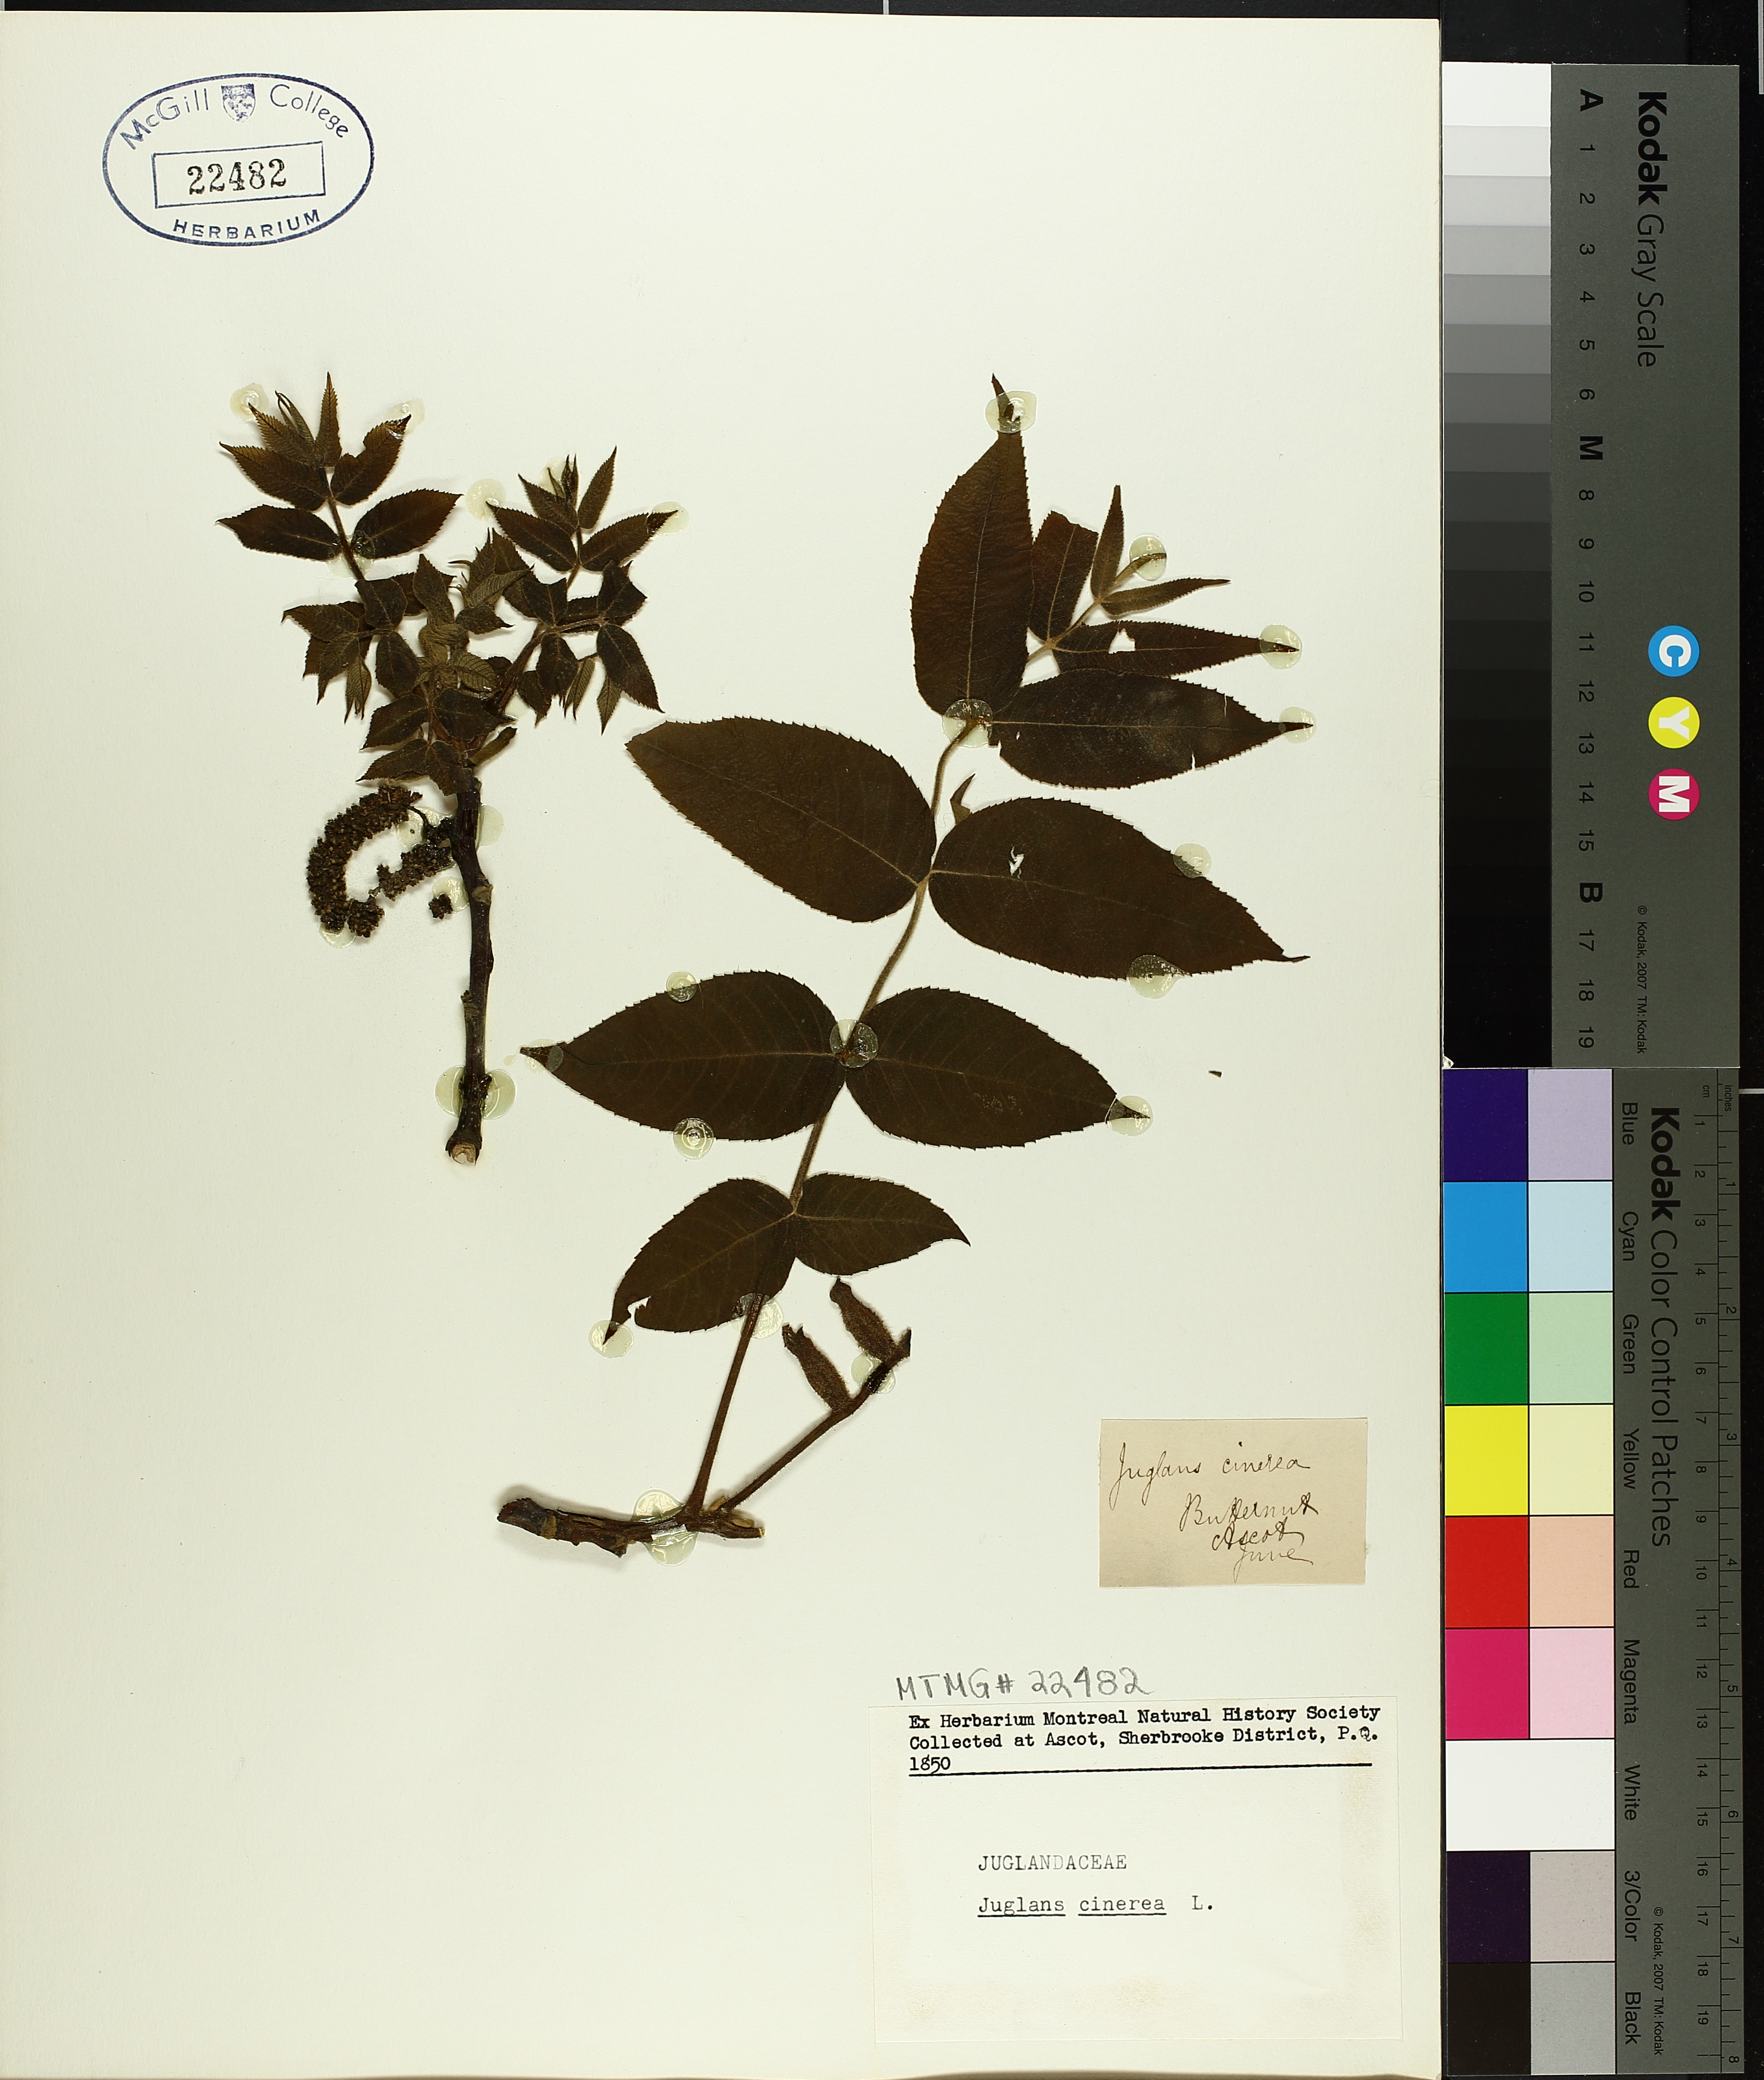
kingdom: Plantae
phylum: Tracheophyta
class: Magnoliopsida
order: Fagales
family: Juglandaceae
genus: Juglans
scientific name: Juglans cinerea
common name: Butternut
